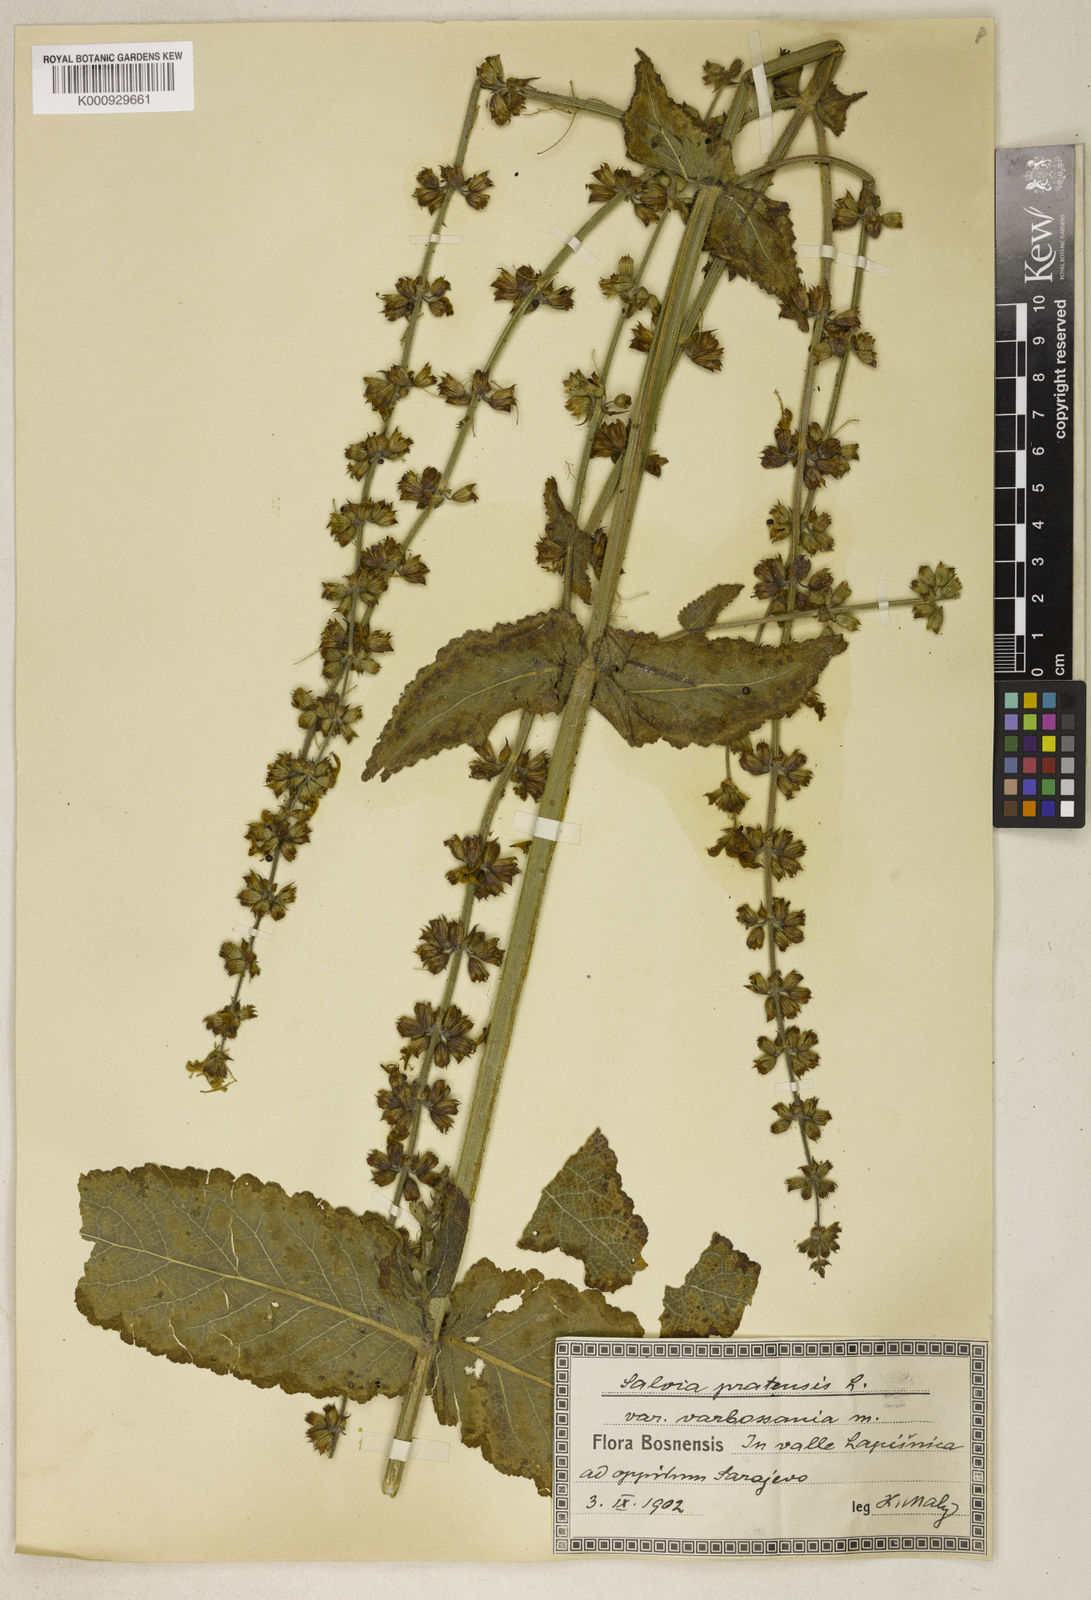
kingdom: Plantae
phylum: Tracheophyta
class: Magnoliopsida
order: Lamiales
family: Lamiaceae
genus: Salvia
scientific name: Salvia pratensis
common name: Meadow sage
